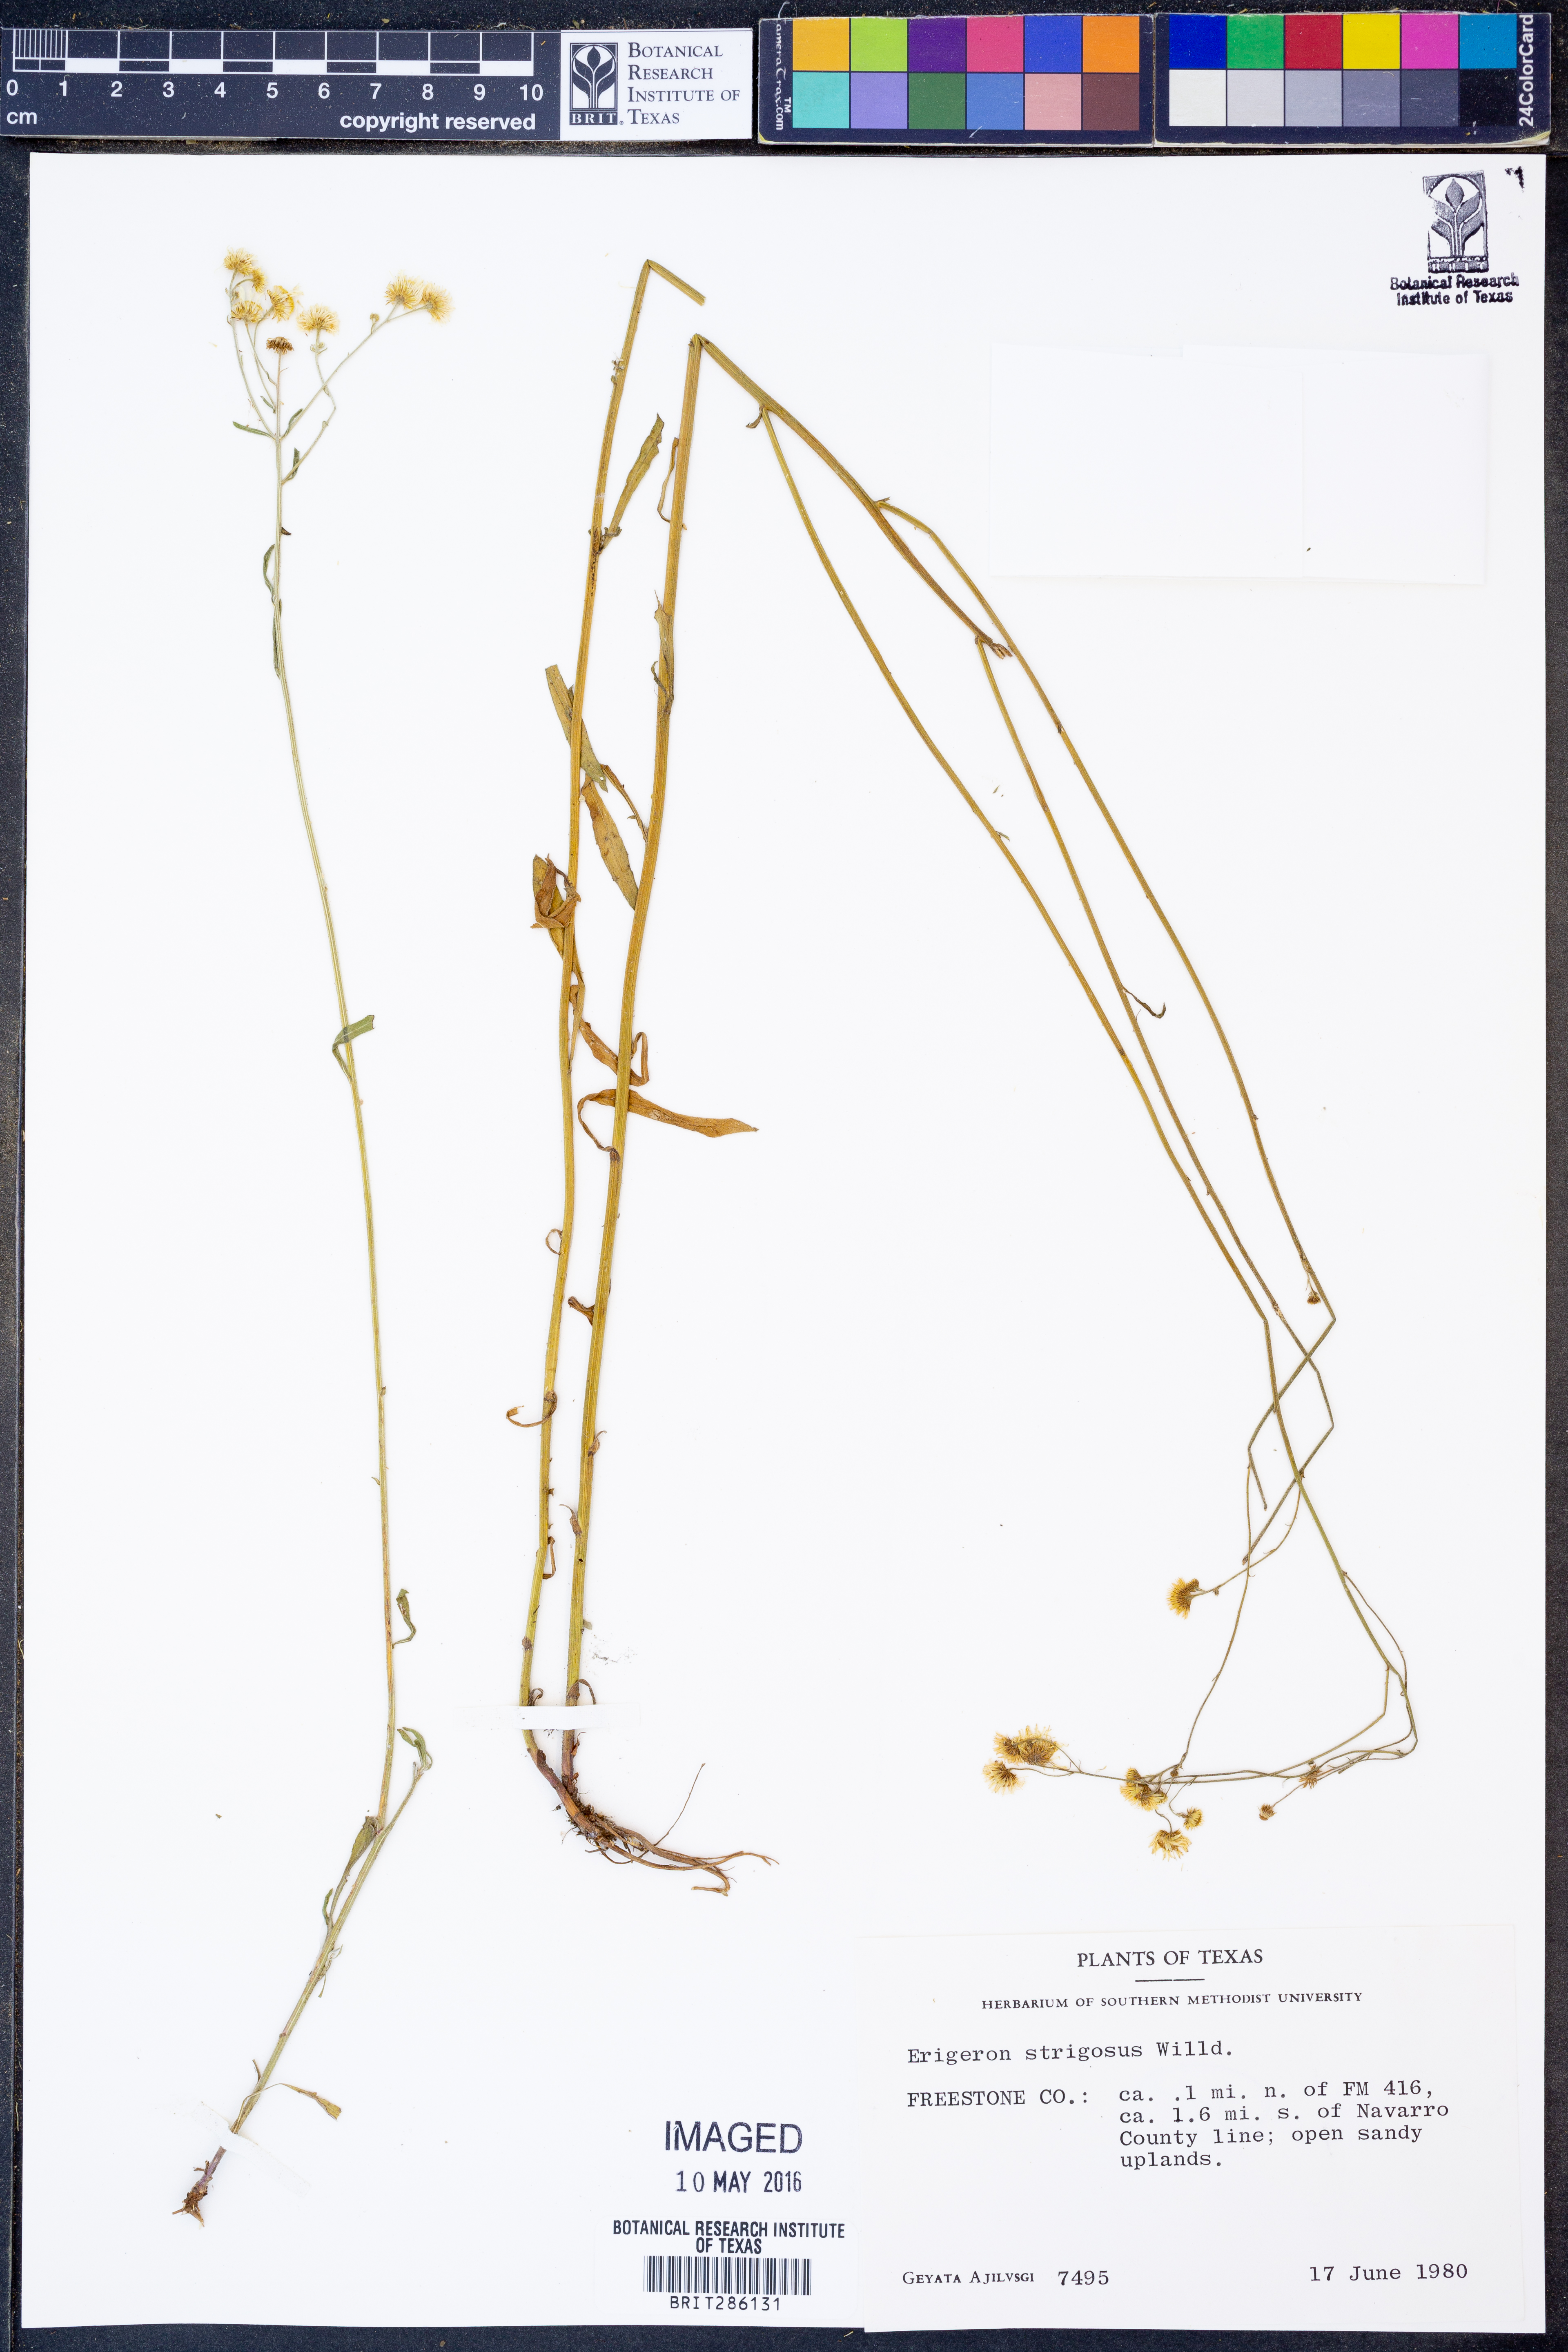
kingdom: Plantae
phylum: Tracheophyta
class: Magnoliopsida
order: Asterales
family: Asteraceae
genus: Erigeron
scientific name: Erigeron strigosus
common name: Common eastern fleabane
